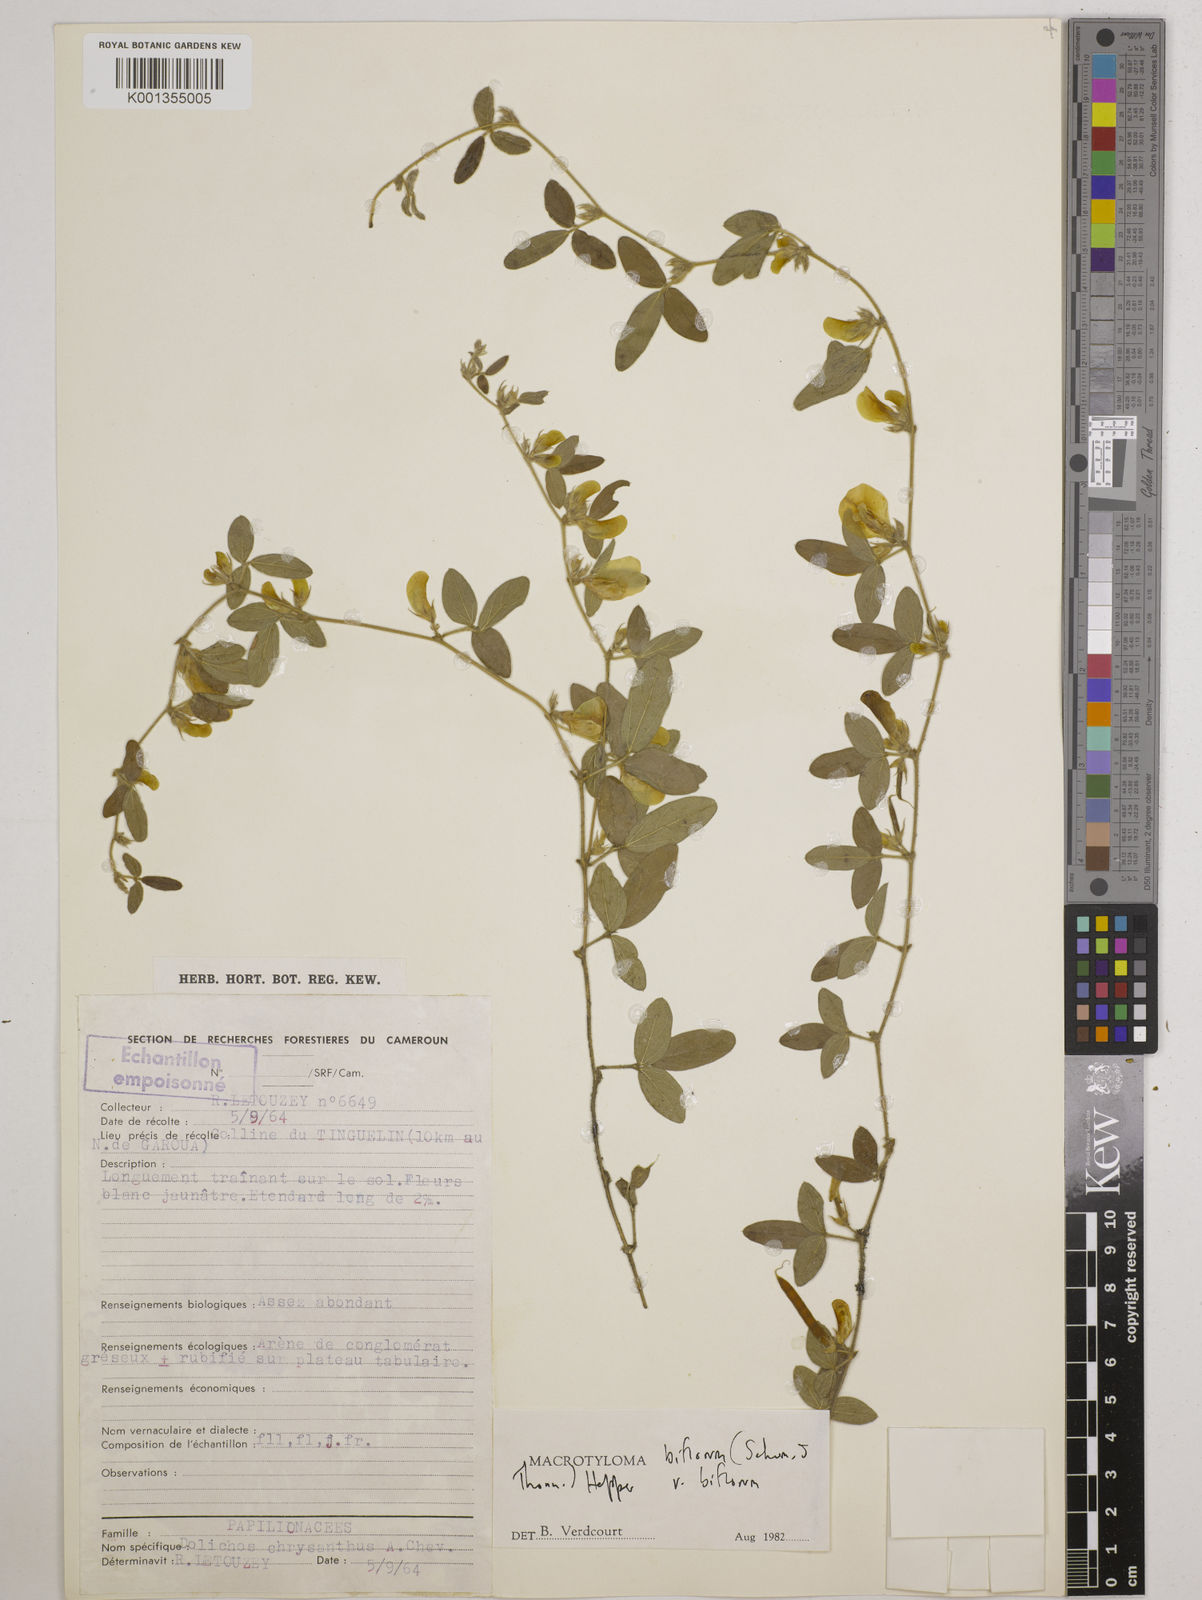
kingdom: Plantae
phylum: Tracheophyta
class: Magnoliopsida
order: Fabales
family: Fabaceae
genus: Macrotyloma
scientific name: Macrotyloma biflorum
